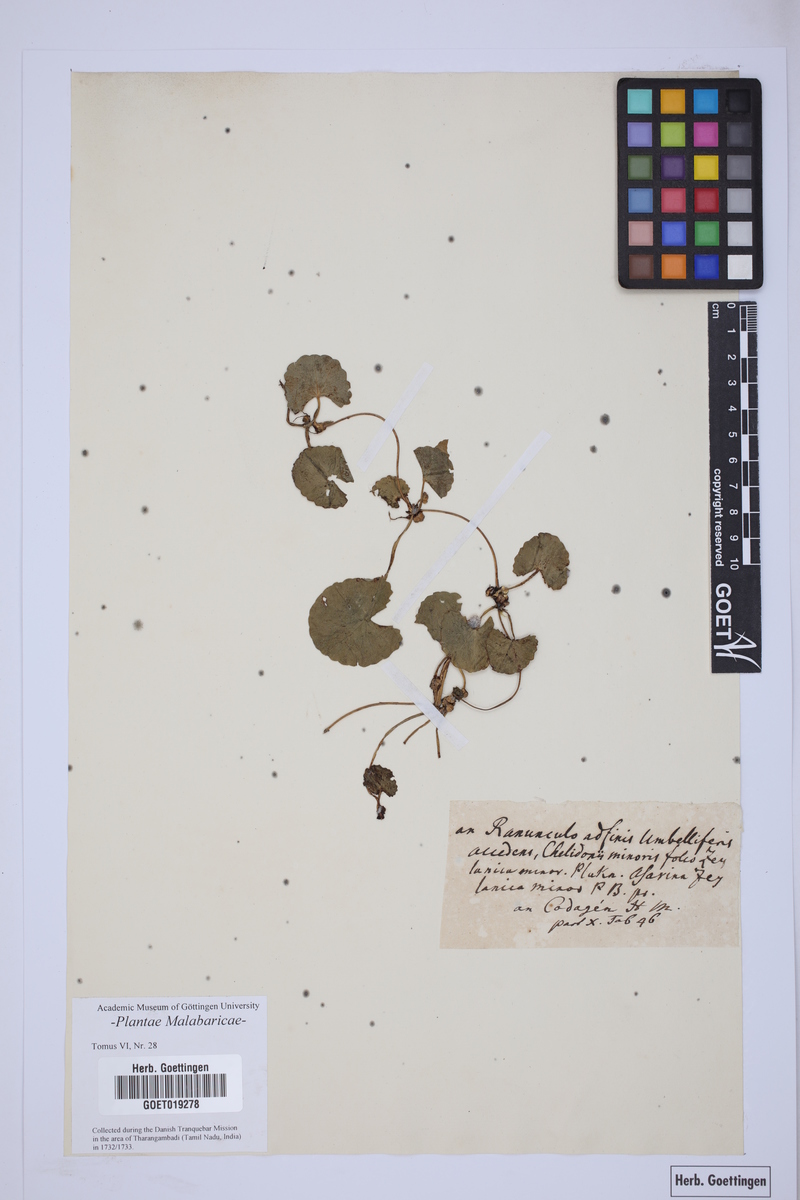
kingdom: Plantae
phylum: Tracheophyta
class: Magnoliopsida
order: Apiales
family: Apiaceae
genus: Centella
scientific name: Centella asiatica
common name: Spadeleaf
